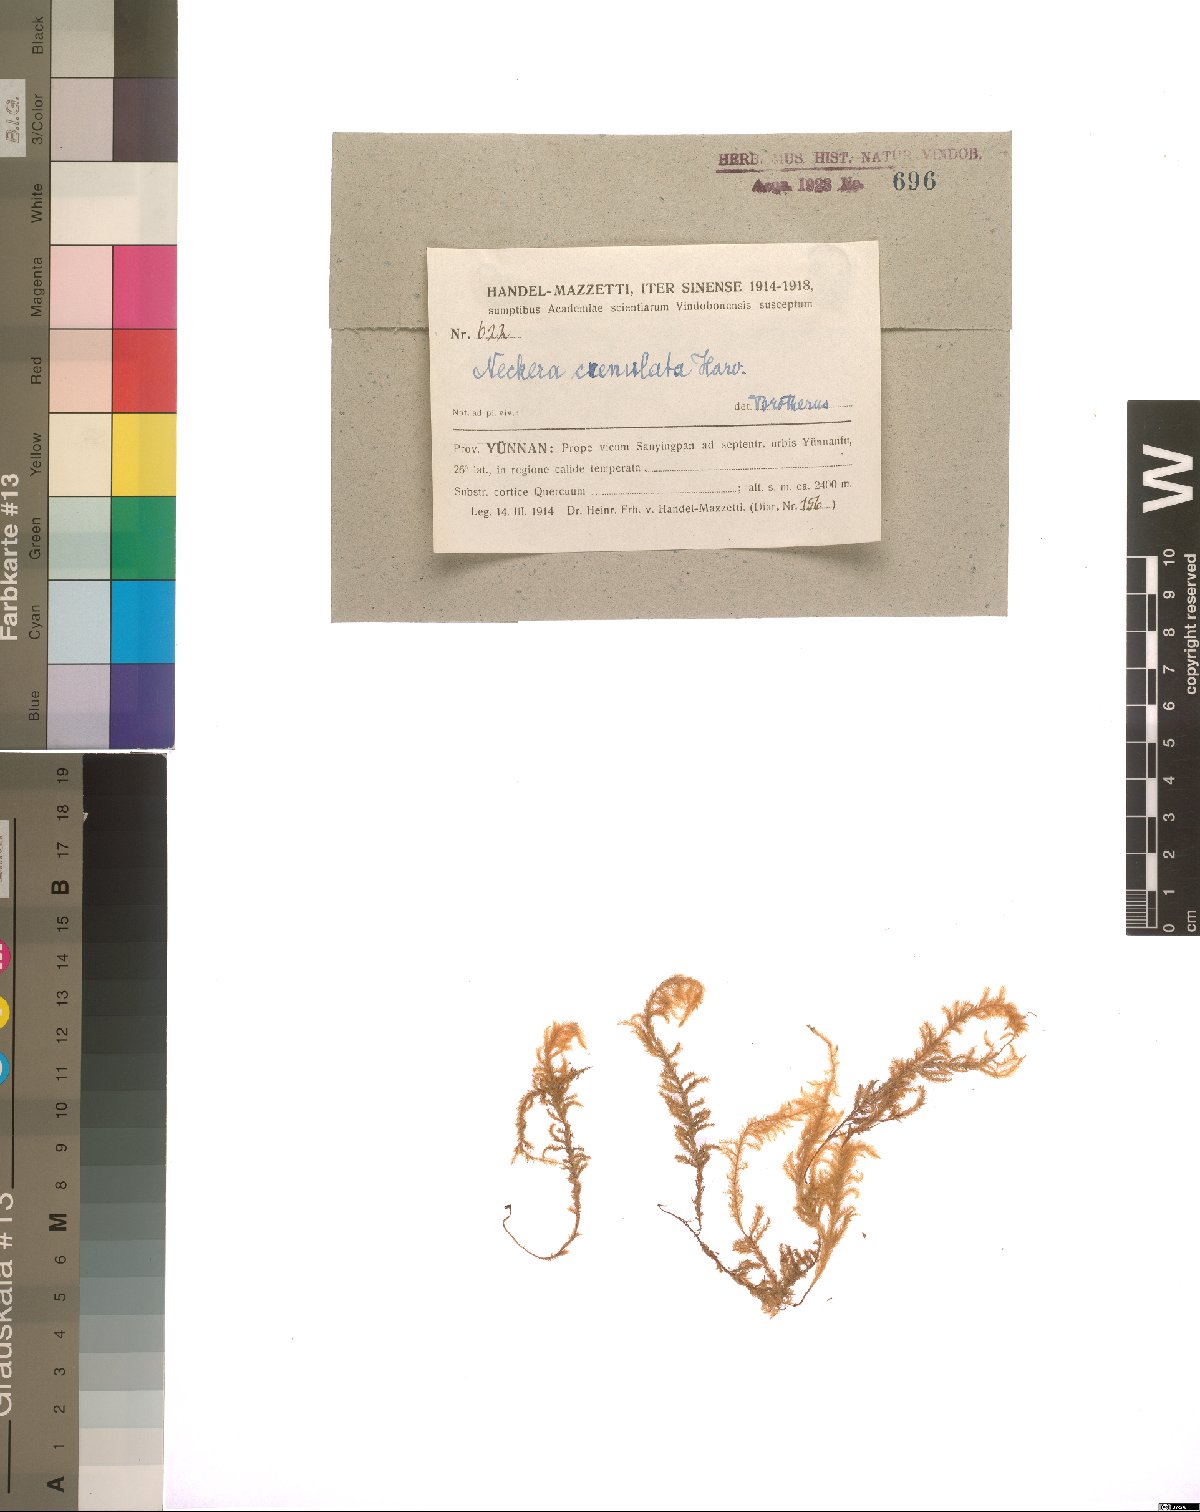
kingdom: Plantae
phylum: Bryophyta
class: Bryopsida
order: Hypnales
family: Neckeraceae
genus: Taiwanobryum
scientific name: Taiwanobryum crenulatum
